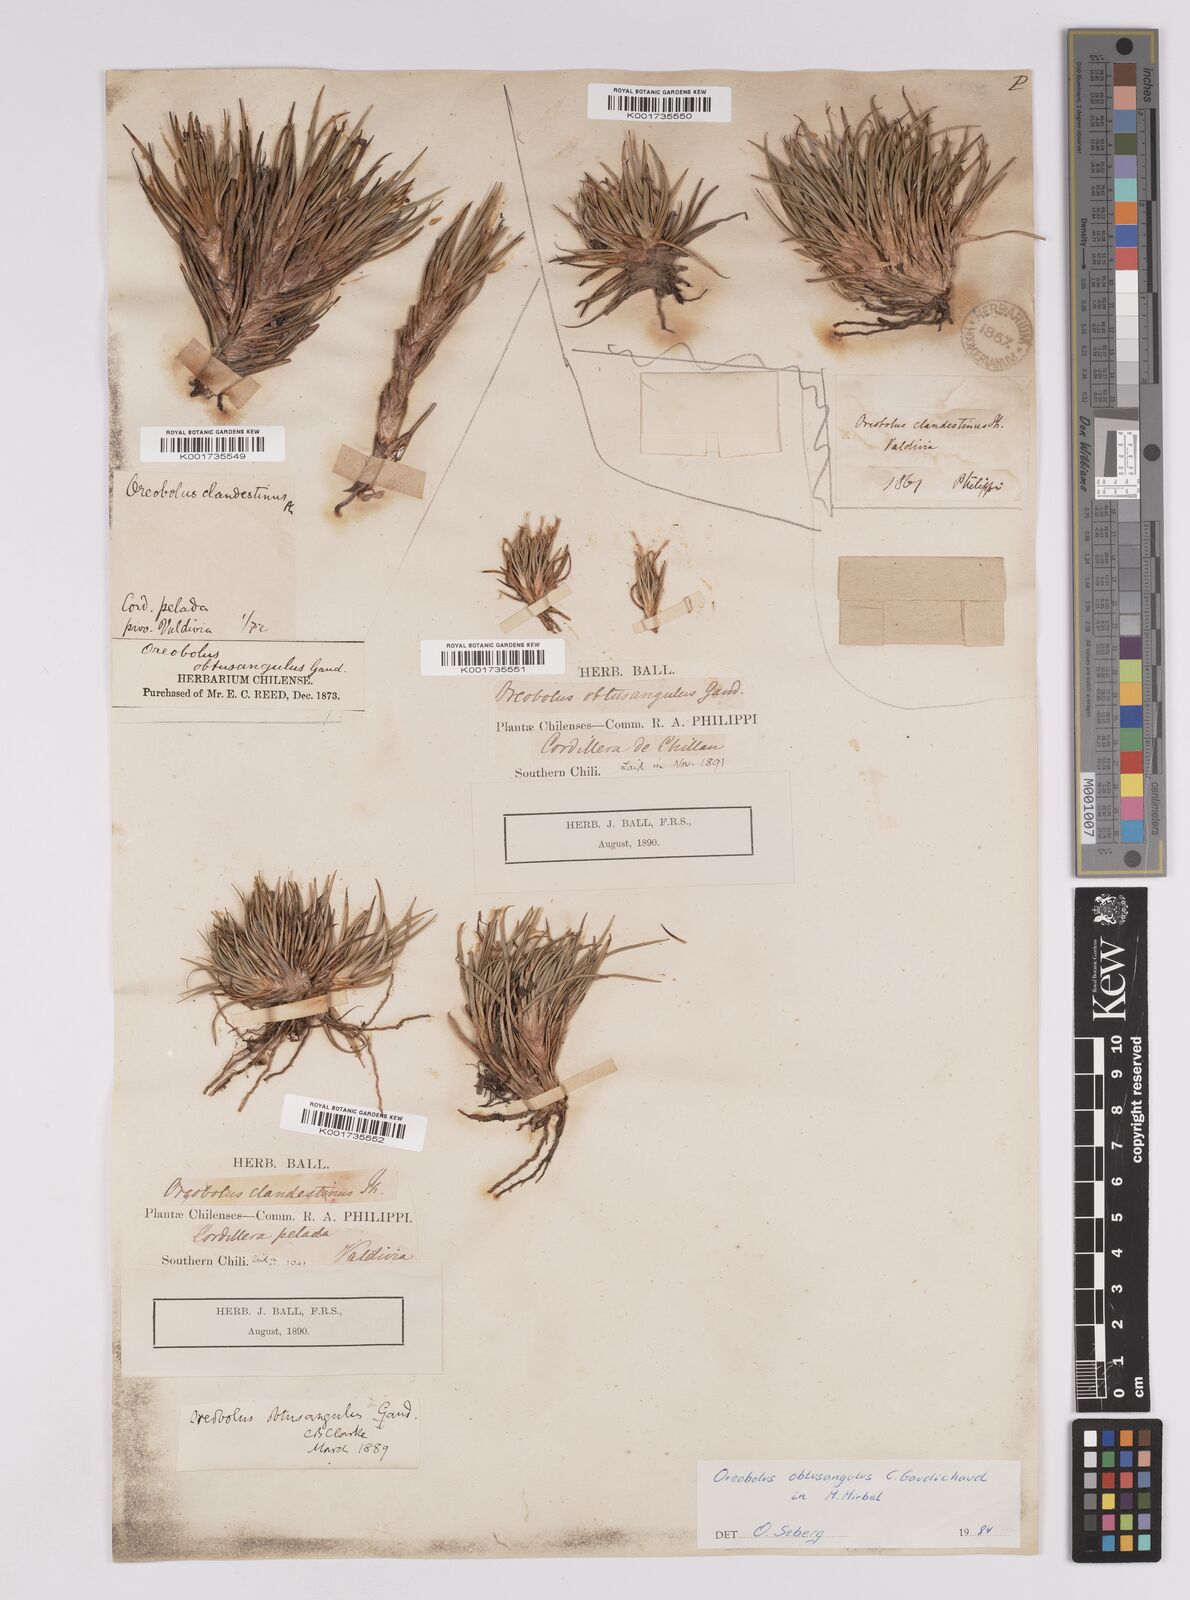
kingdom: Plantae
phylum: Tracheophyta
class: Liliopsida
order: Poales
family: Cyperaceae
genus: Oreobolus
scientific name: Oreobolus obtusangulus
